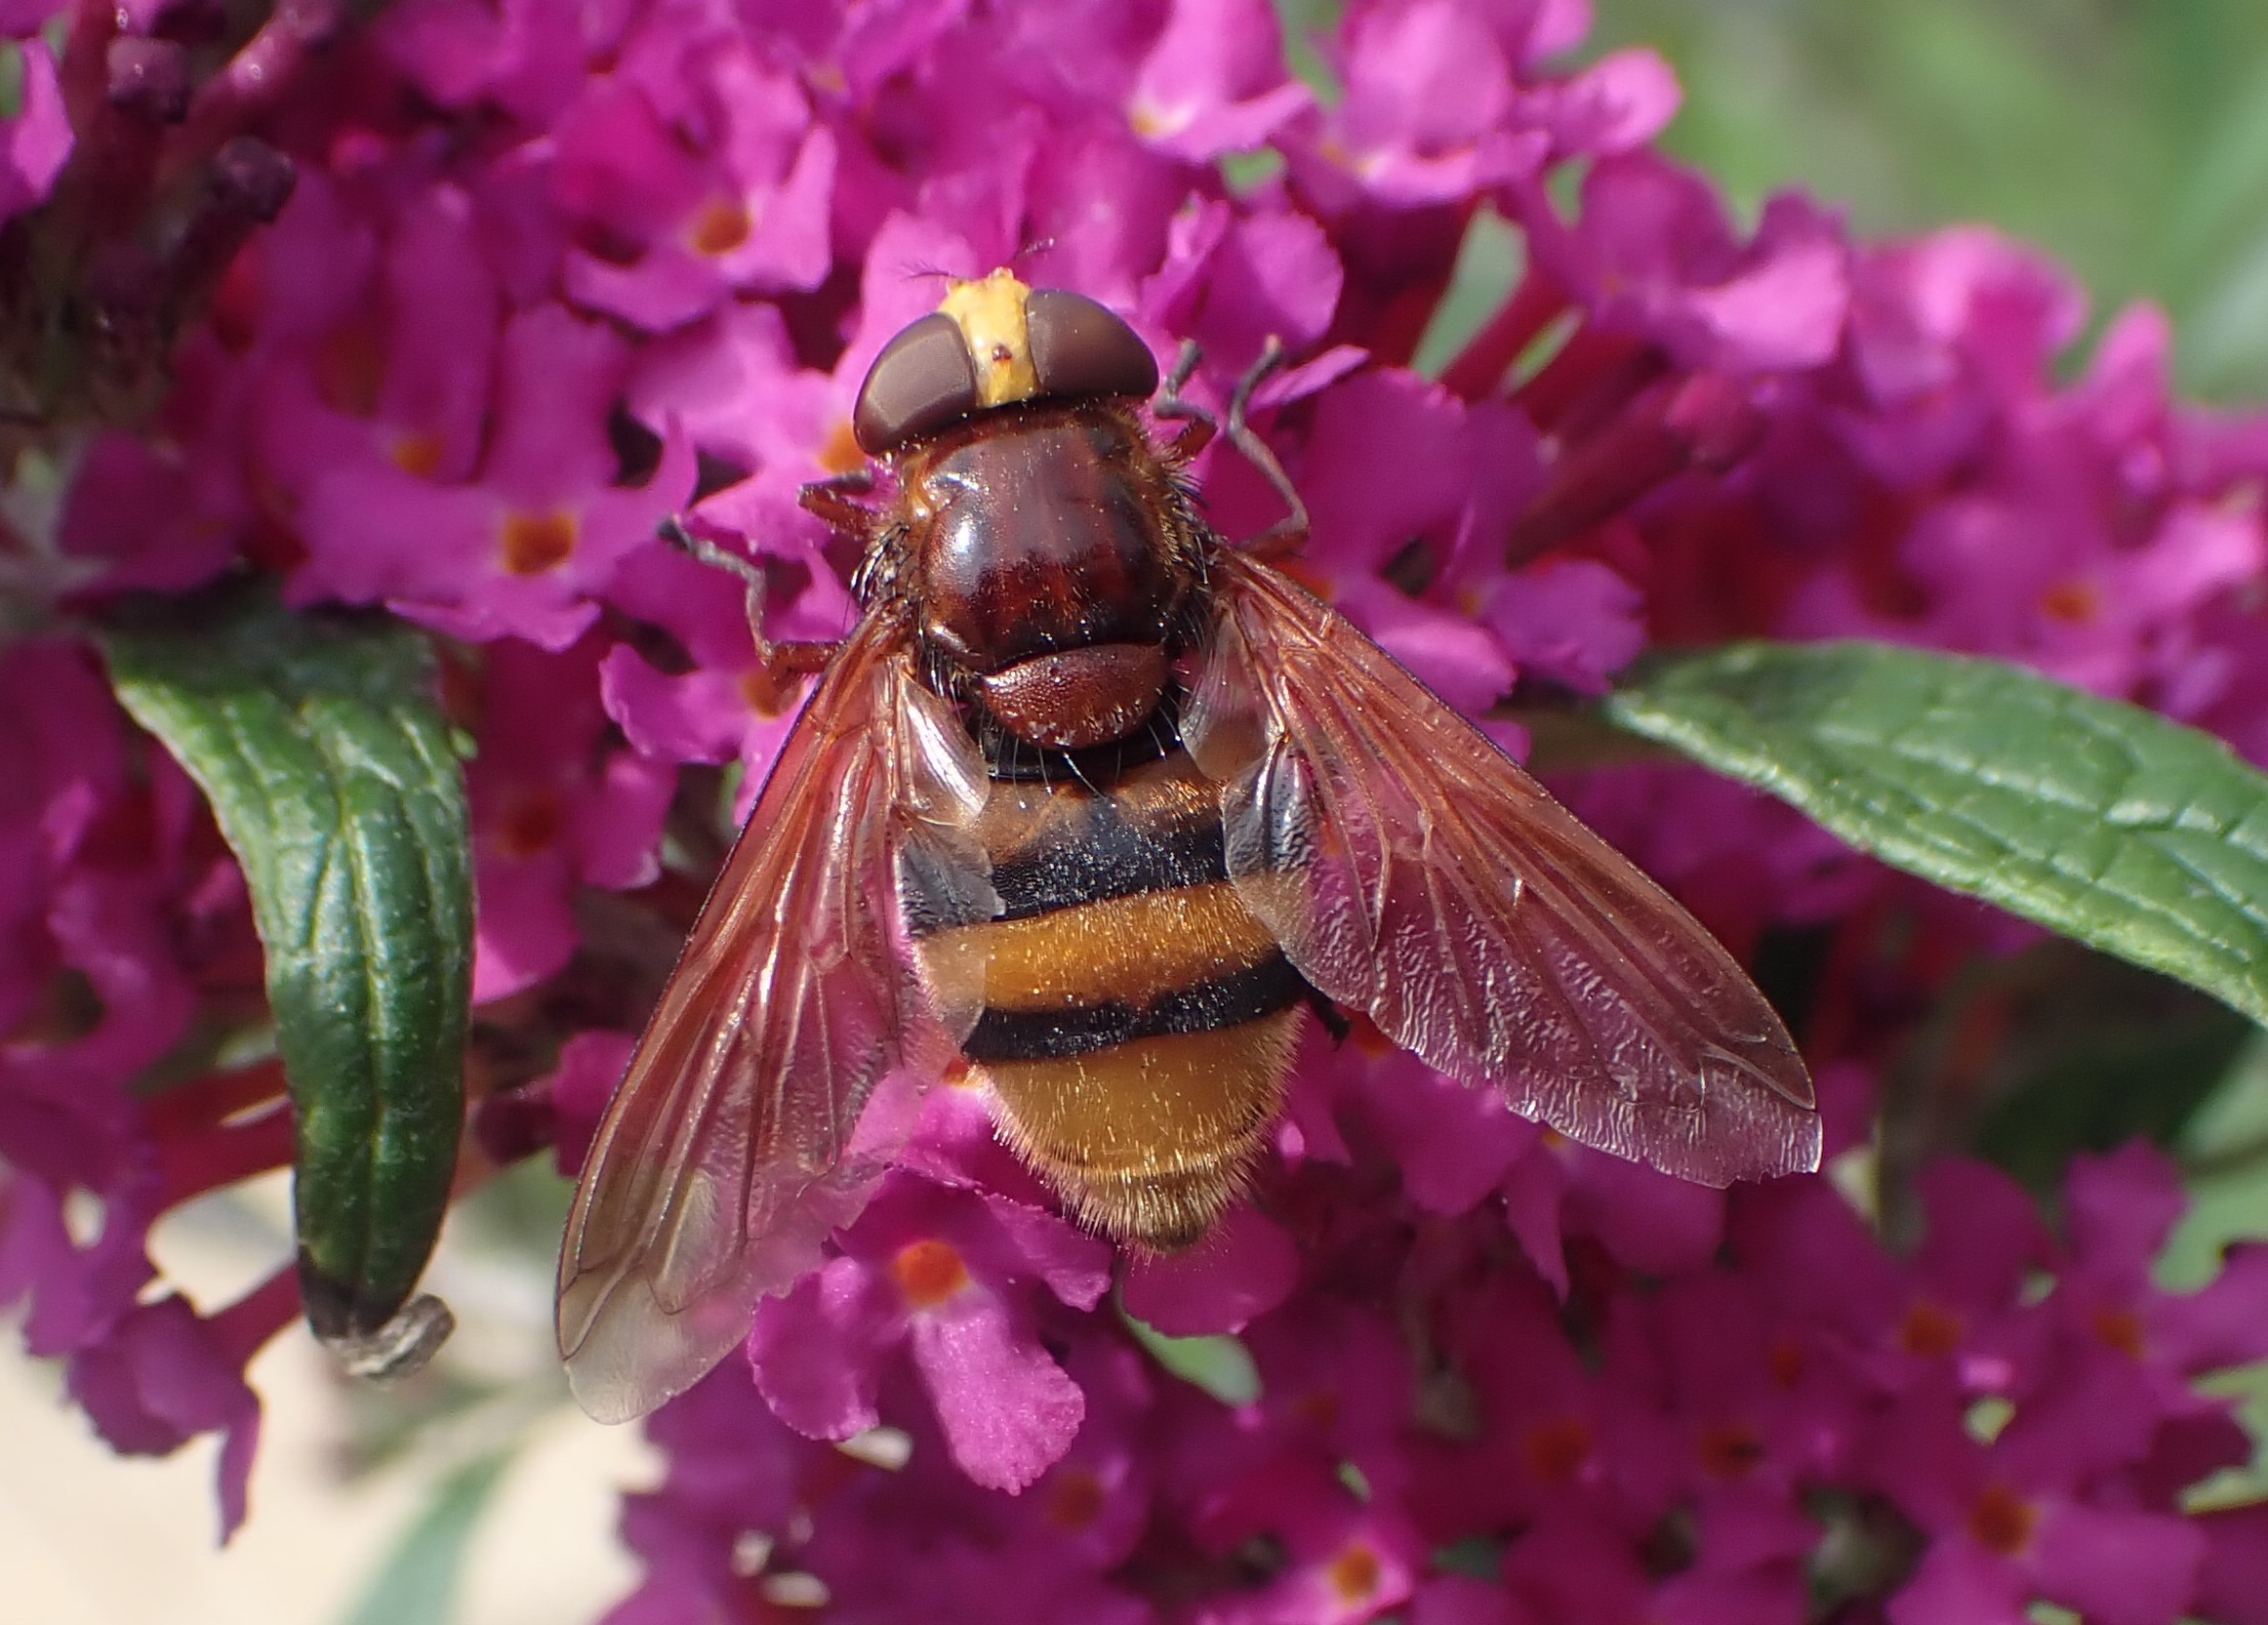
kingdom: Animalia
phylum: Arthropoda
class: Insecta
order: Diptera
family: Syrphidae
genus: Volucella
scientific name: Volucella zonaria
